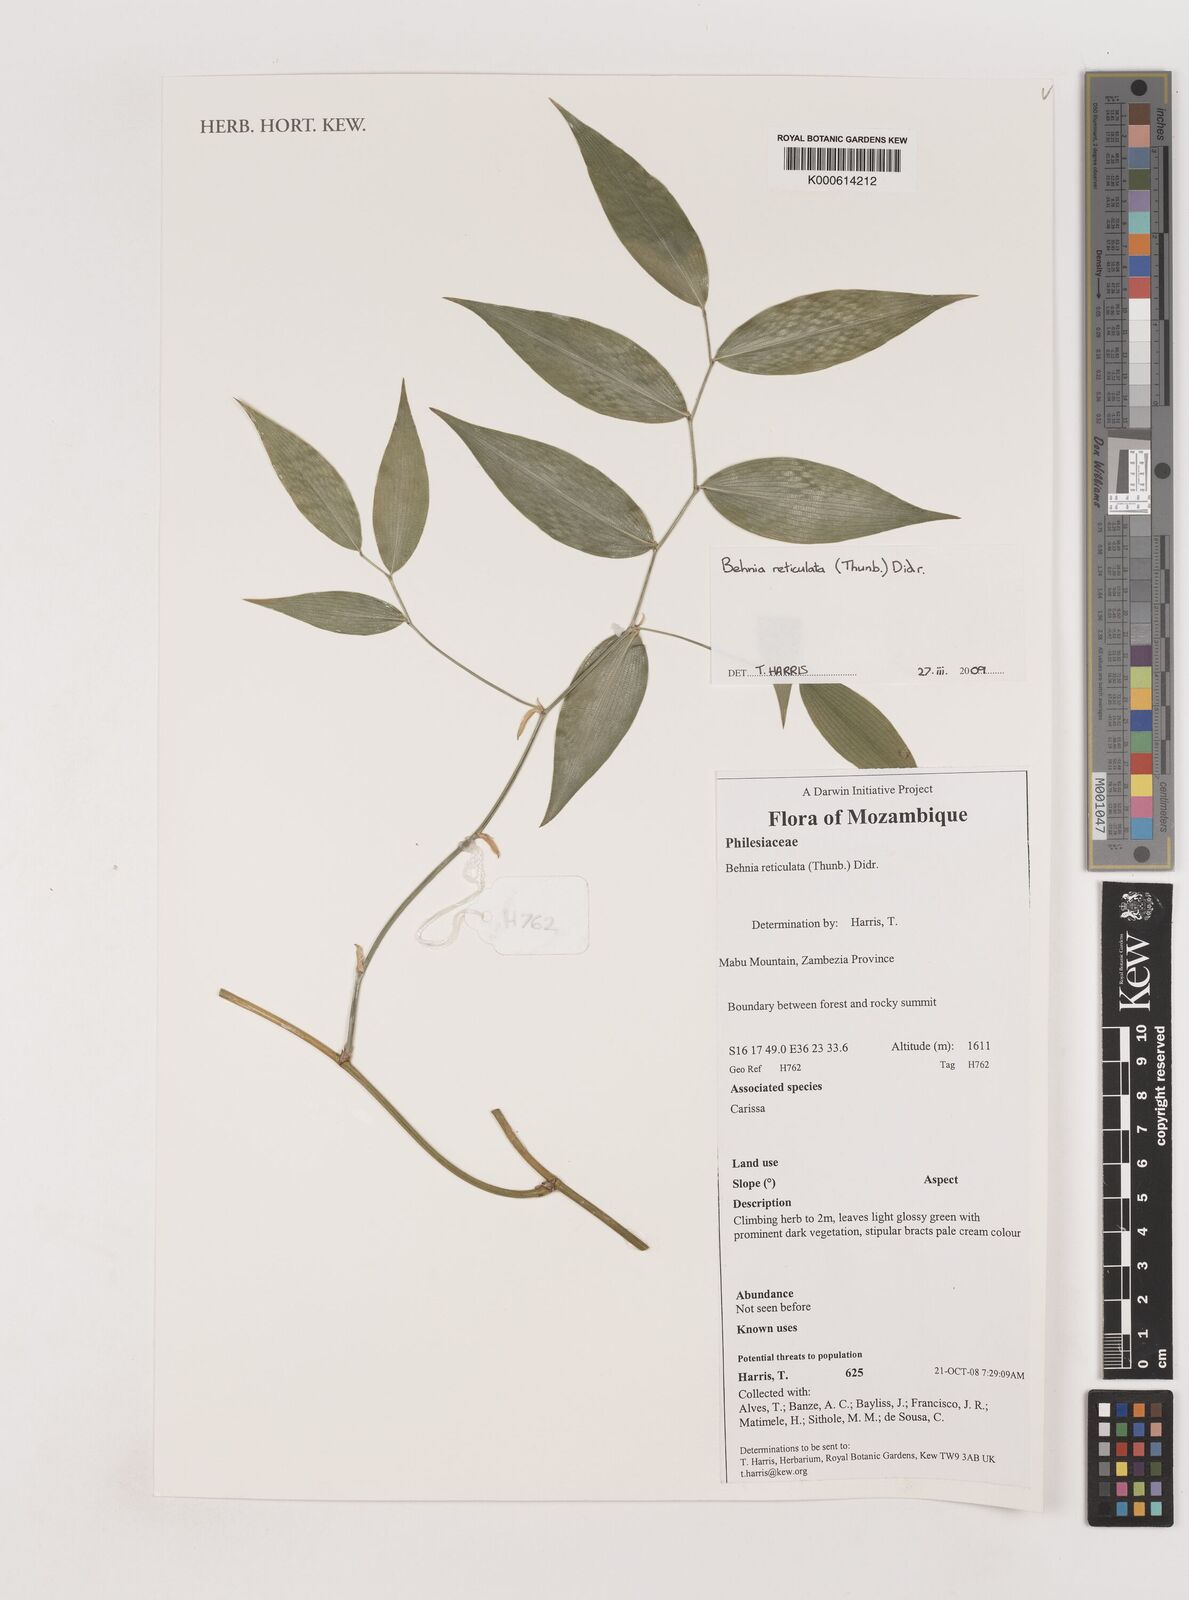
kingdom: Plantae
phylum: Tracheophyta
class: Liliopsida
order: Asparagales
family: Asparagaceae
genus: Behnia
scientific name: Behnia reticulata
